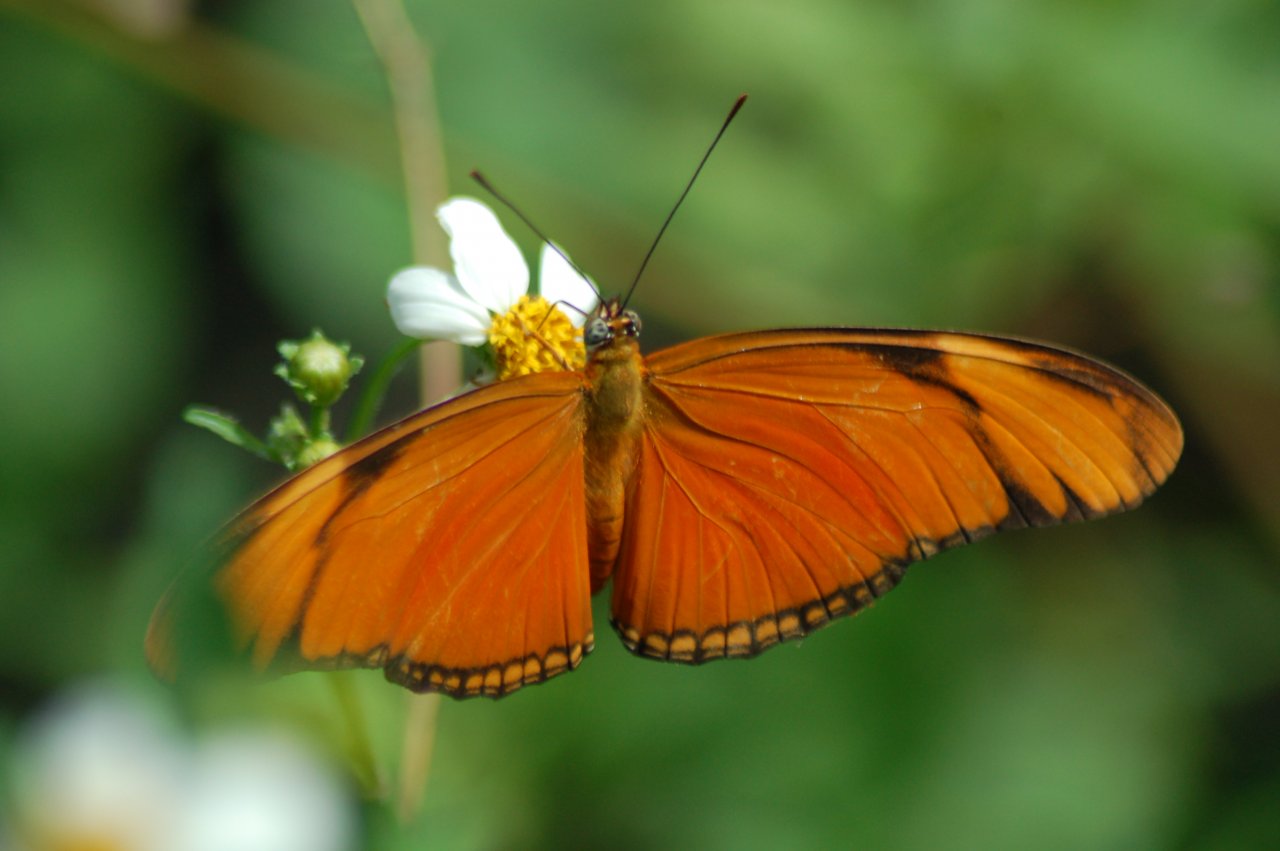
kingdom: Animalia
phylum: Arthropoda
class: Insecta
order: Lepidoptera
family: Nymphalidae
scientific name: Nymphalidae
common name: Brushfoots
